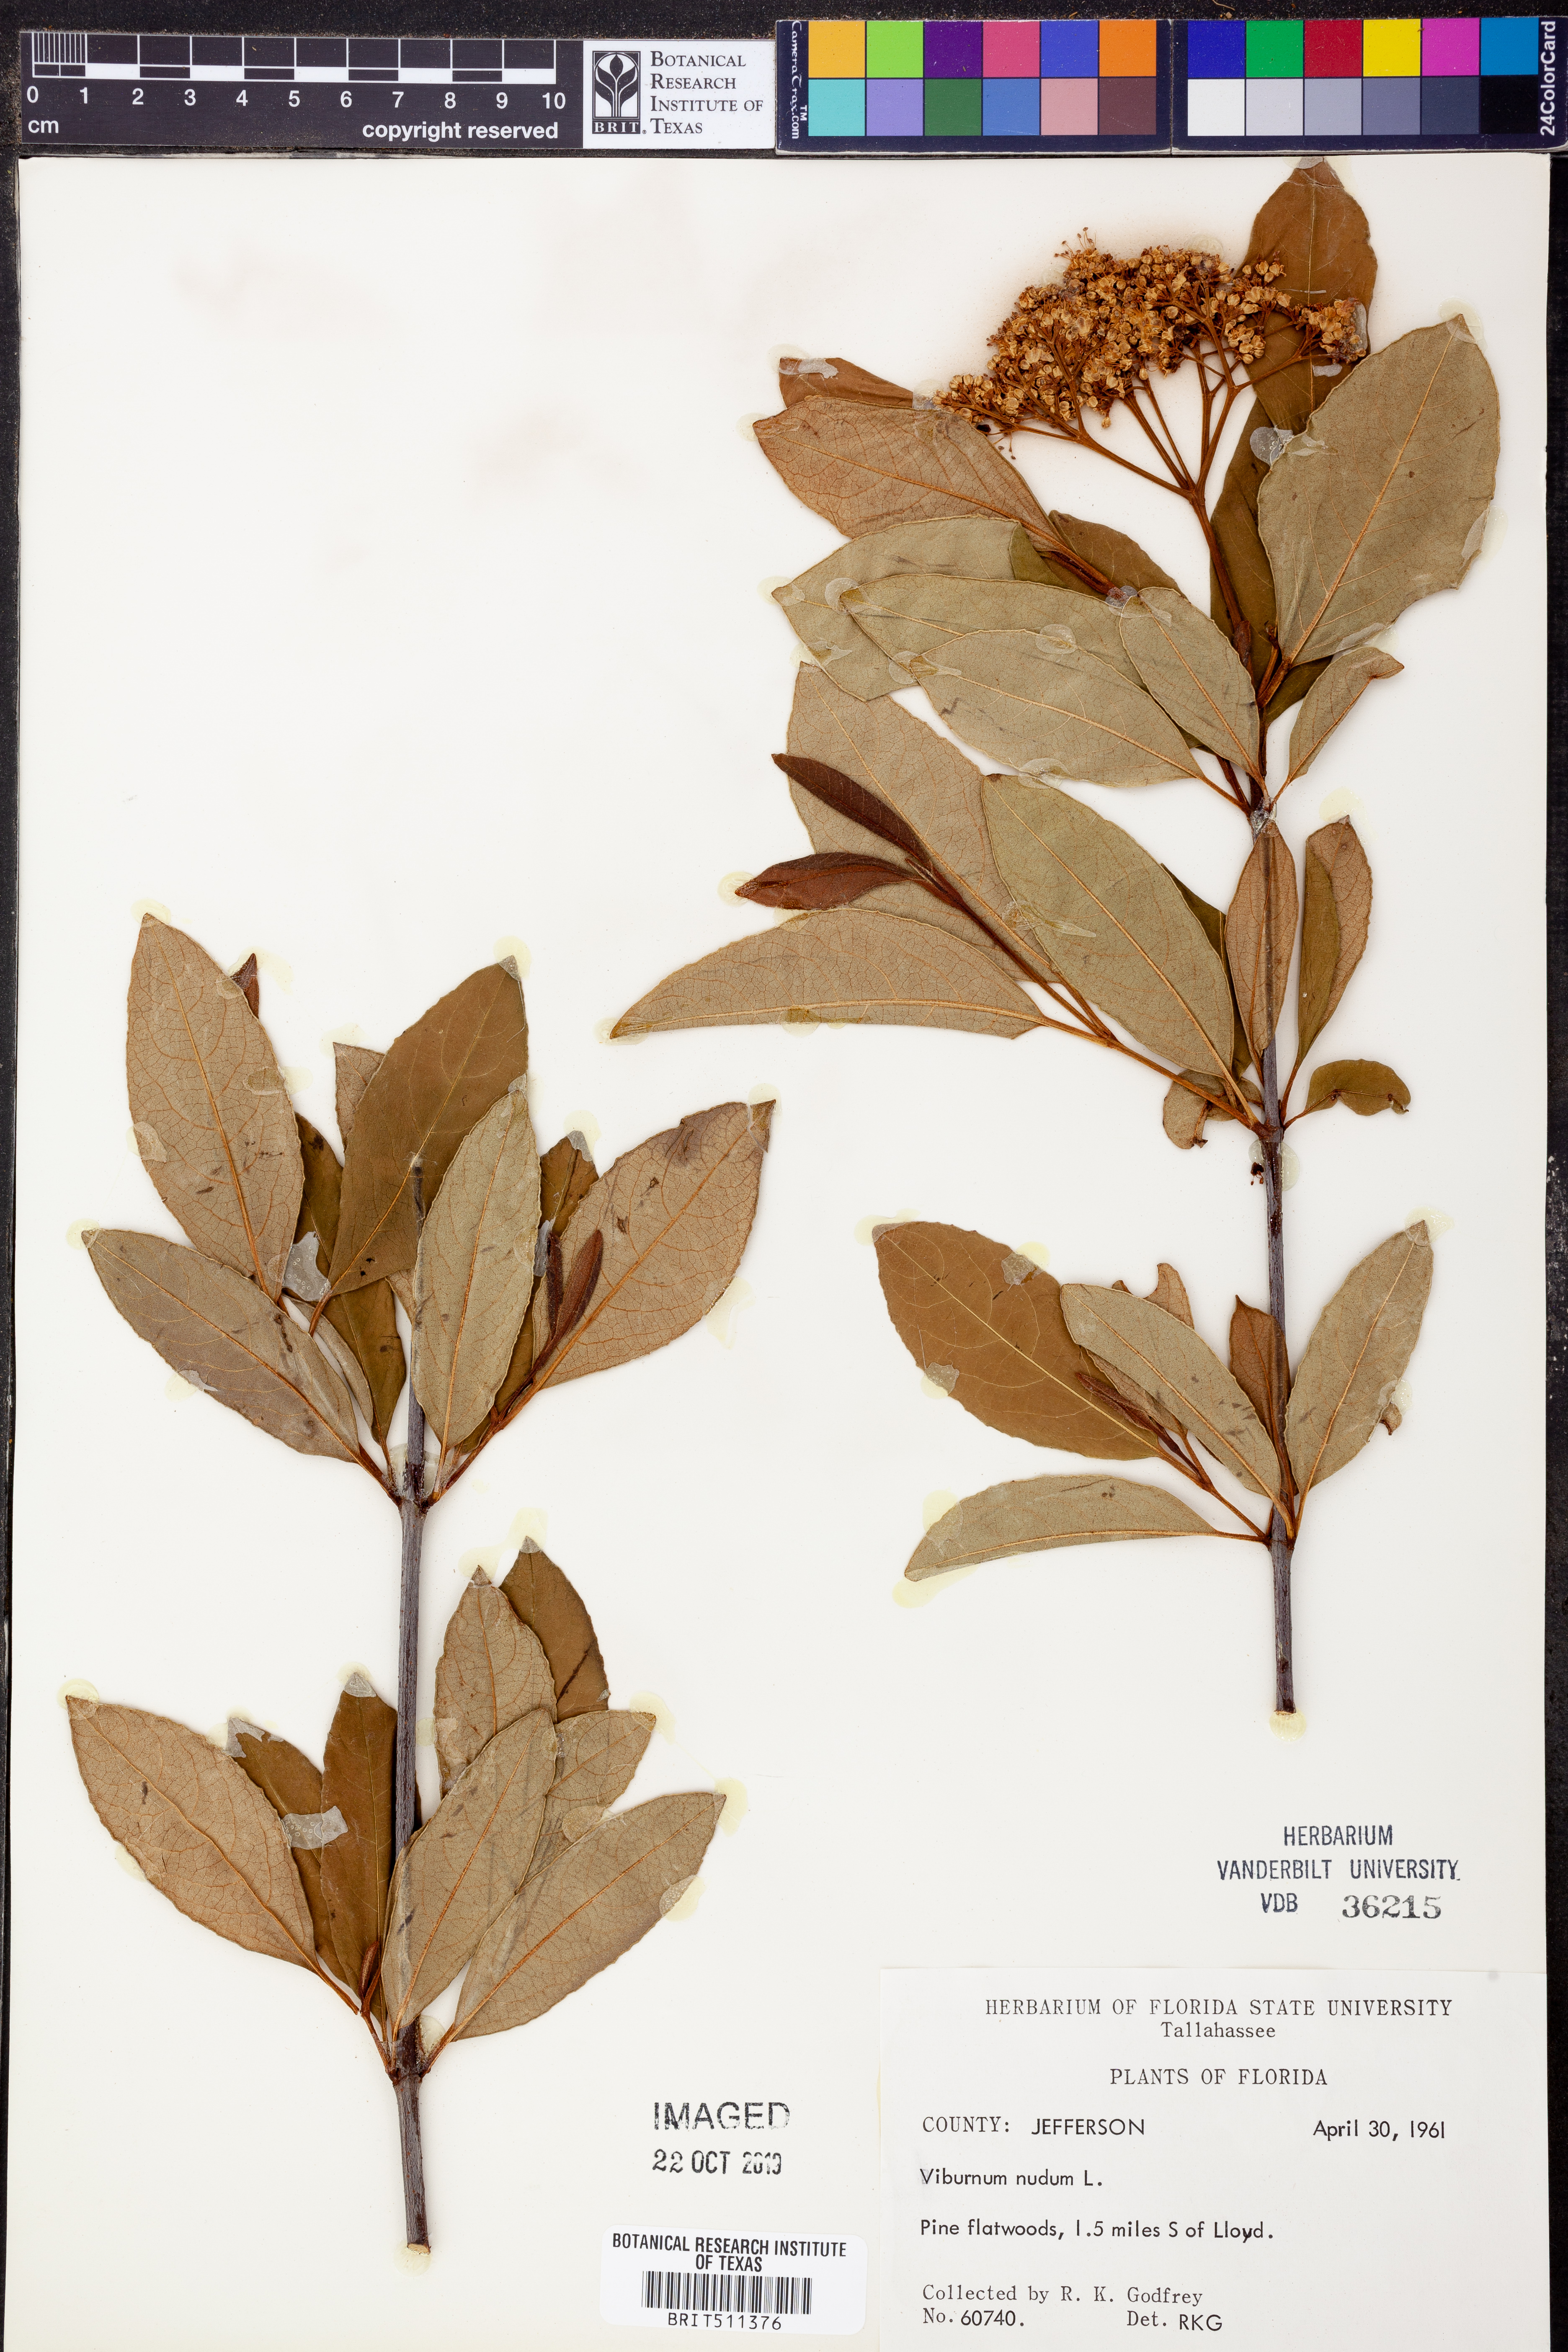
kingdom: Plantae
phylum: Tracheophyta
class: Magnoliopsida
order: Dipsacales
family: Viburnaceae
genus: Viburnum
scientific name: Viburnum nudum
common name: Possum haw
